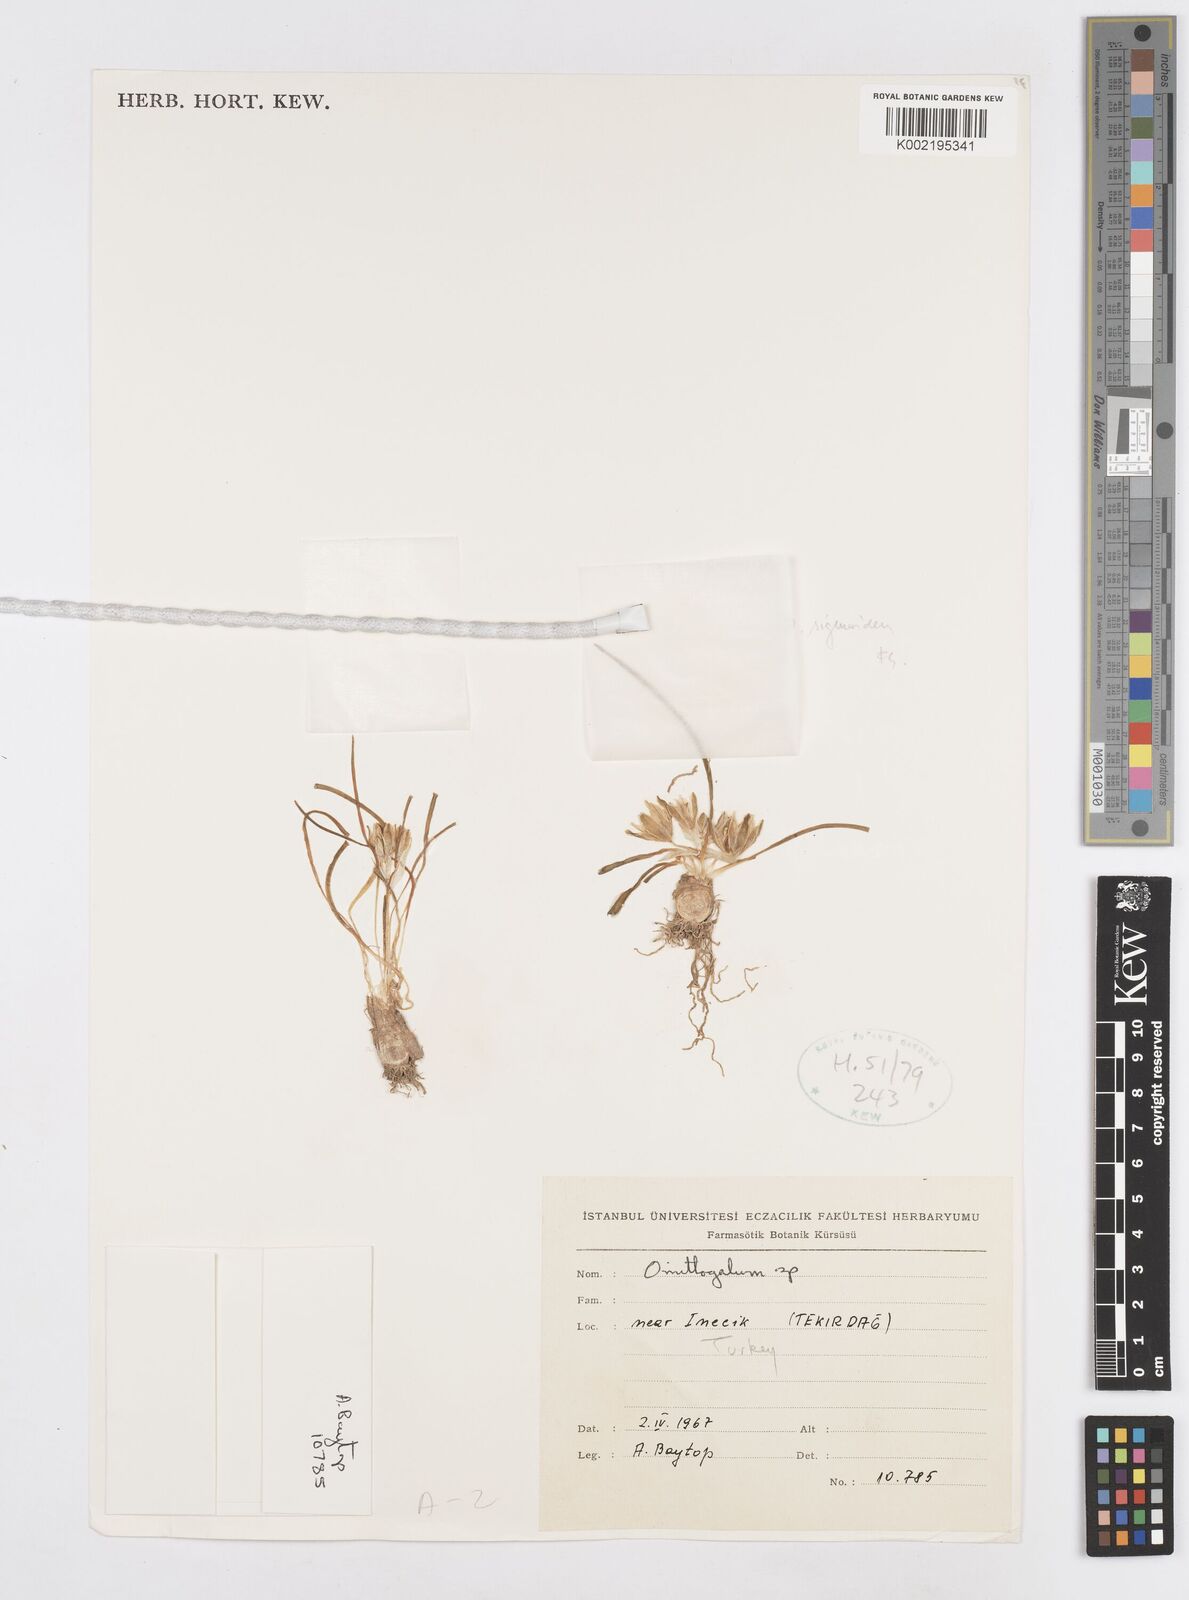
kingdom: Plantae
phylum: Tracheophyta
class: Liliopsida
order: Asparagales
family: Asparagaceae
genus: Ornithogalum
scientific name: Ornithogalum sigmoideum
